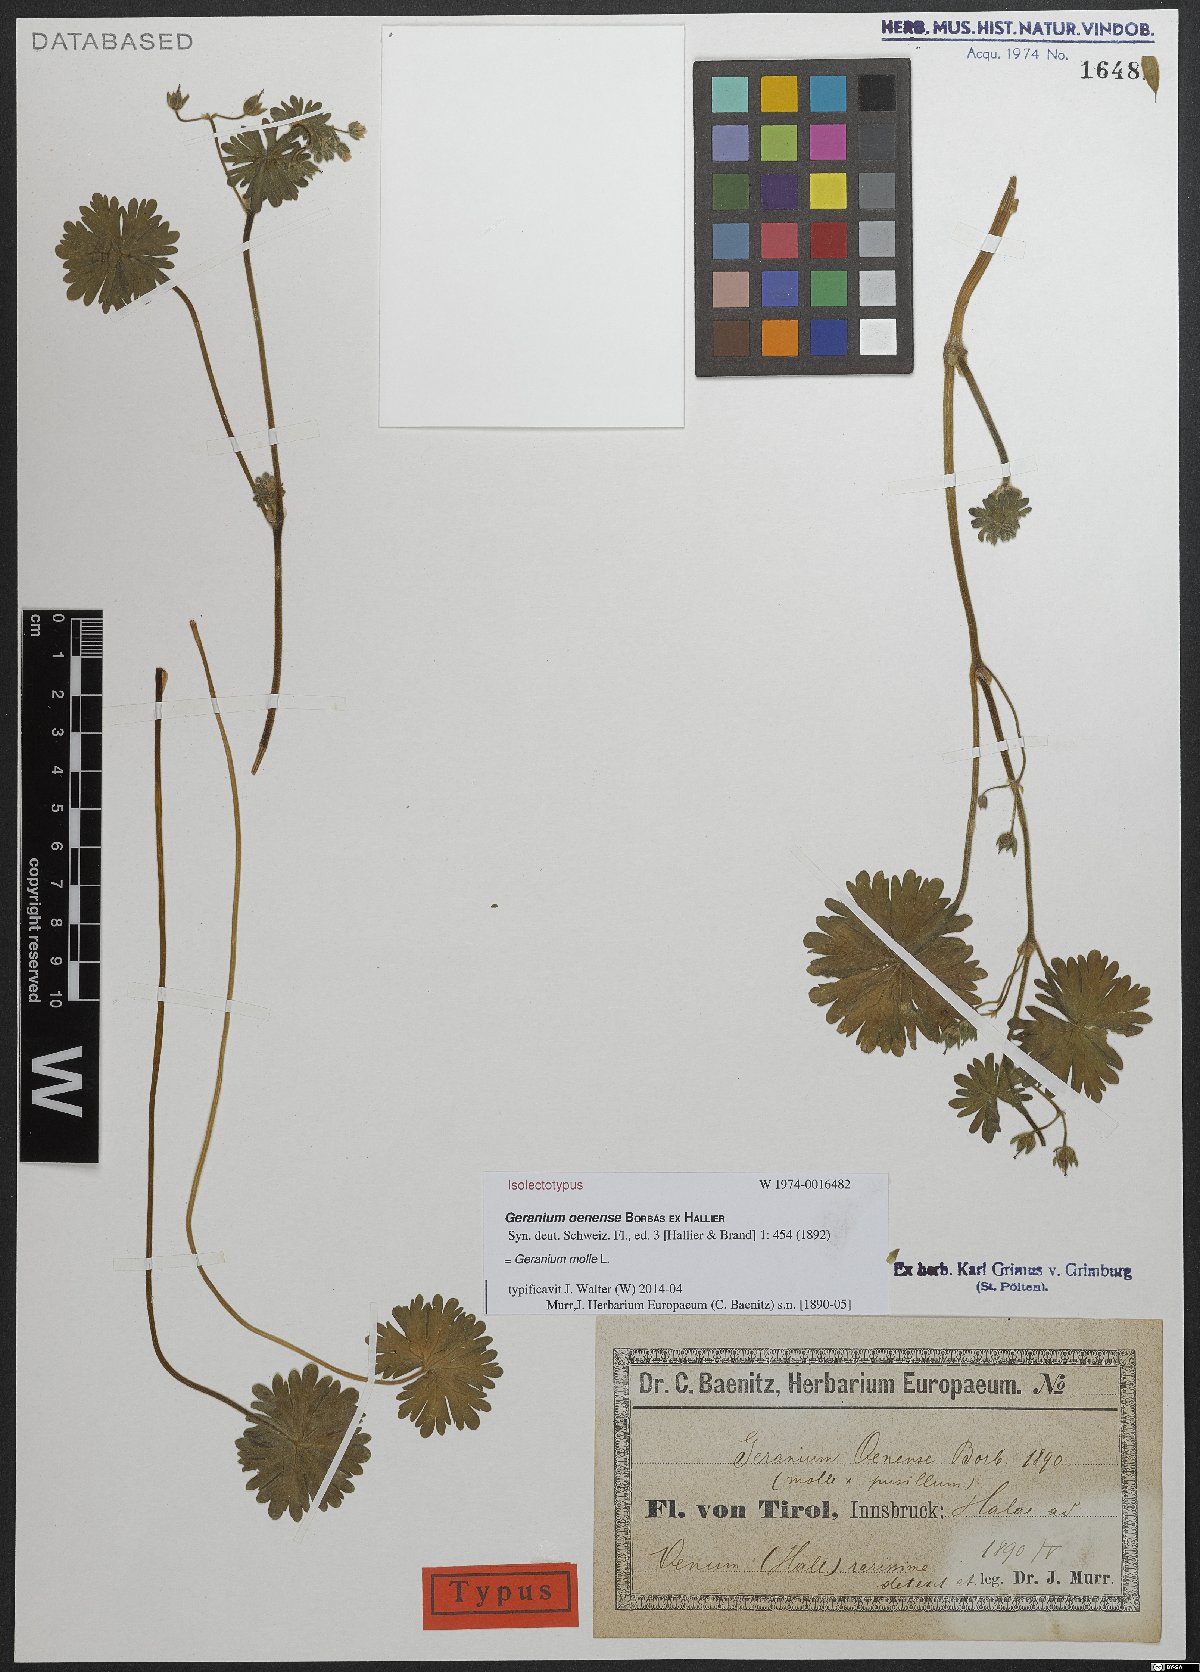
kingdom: Plantae
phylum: Tracheophyta
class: Magnoliopsida
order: Geraniales
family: Geraniaceae
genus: Geranium
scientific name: Geranium molle
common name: Dove's-foot crane's-bill
